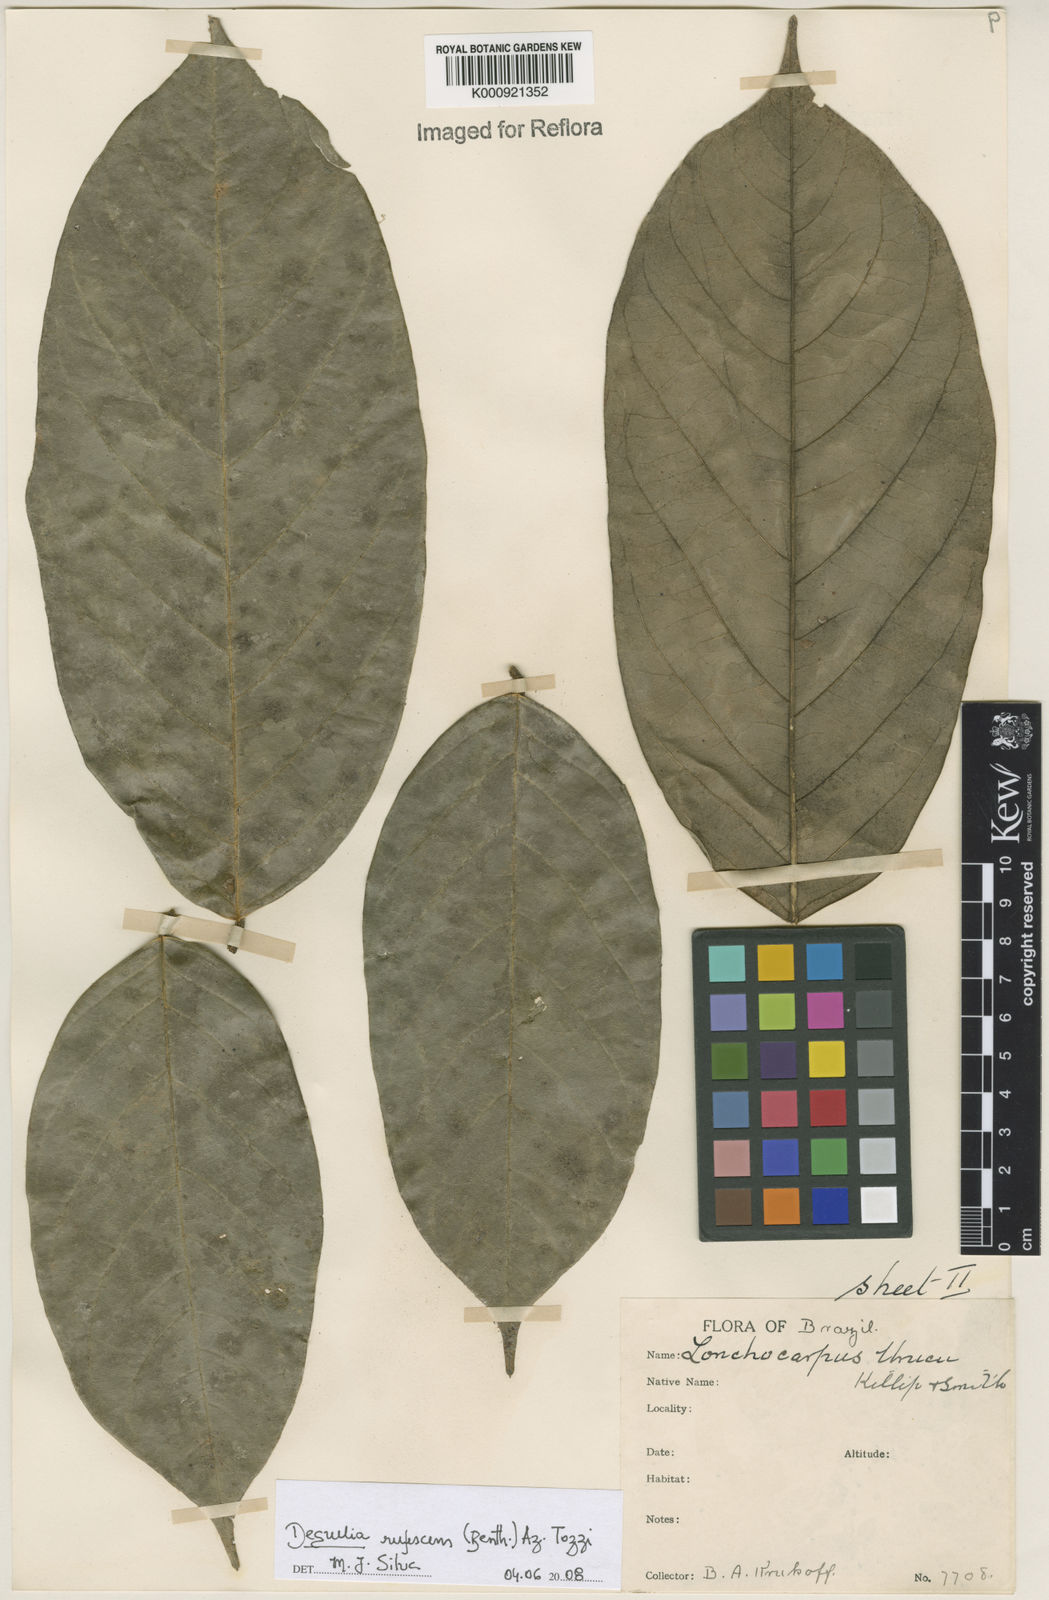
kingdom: Plantae
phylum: Tracheophyta
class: Magnoliopsida
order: Fabales
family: Fabaceae
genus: Deguelia
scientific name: Deguelia
